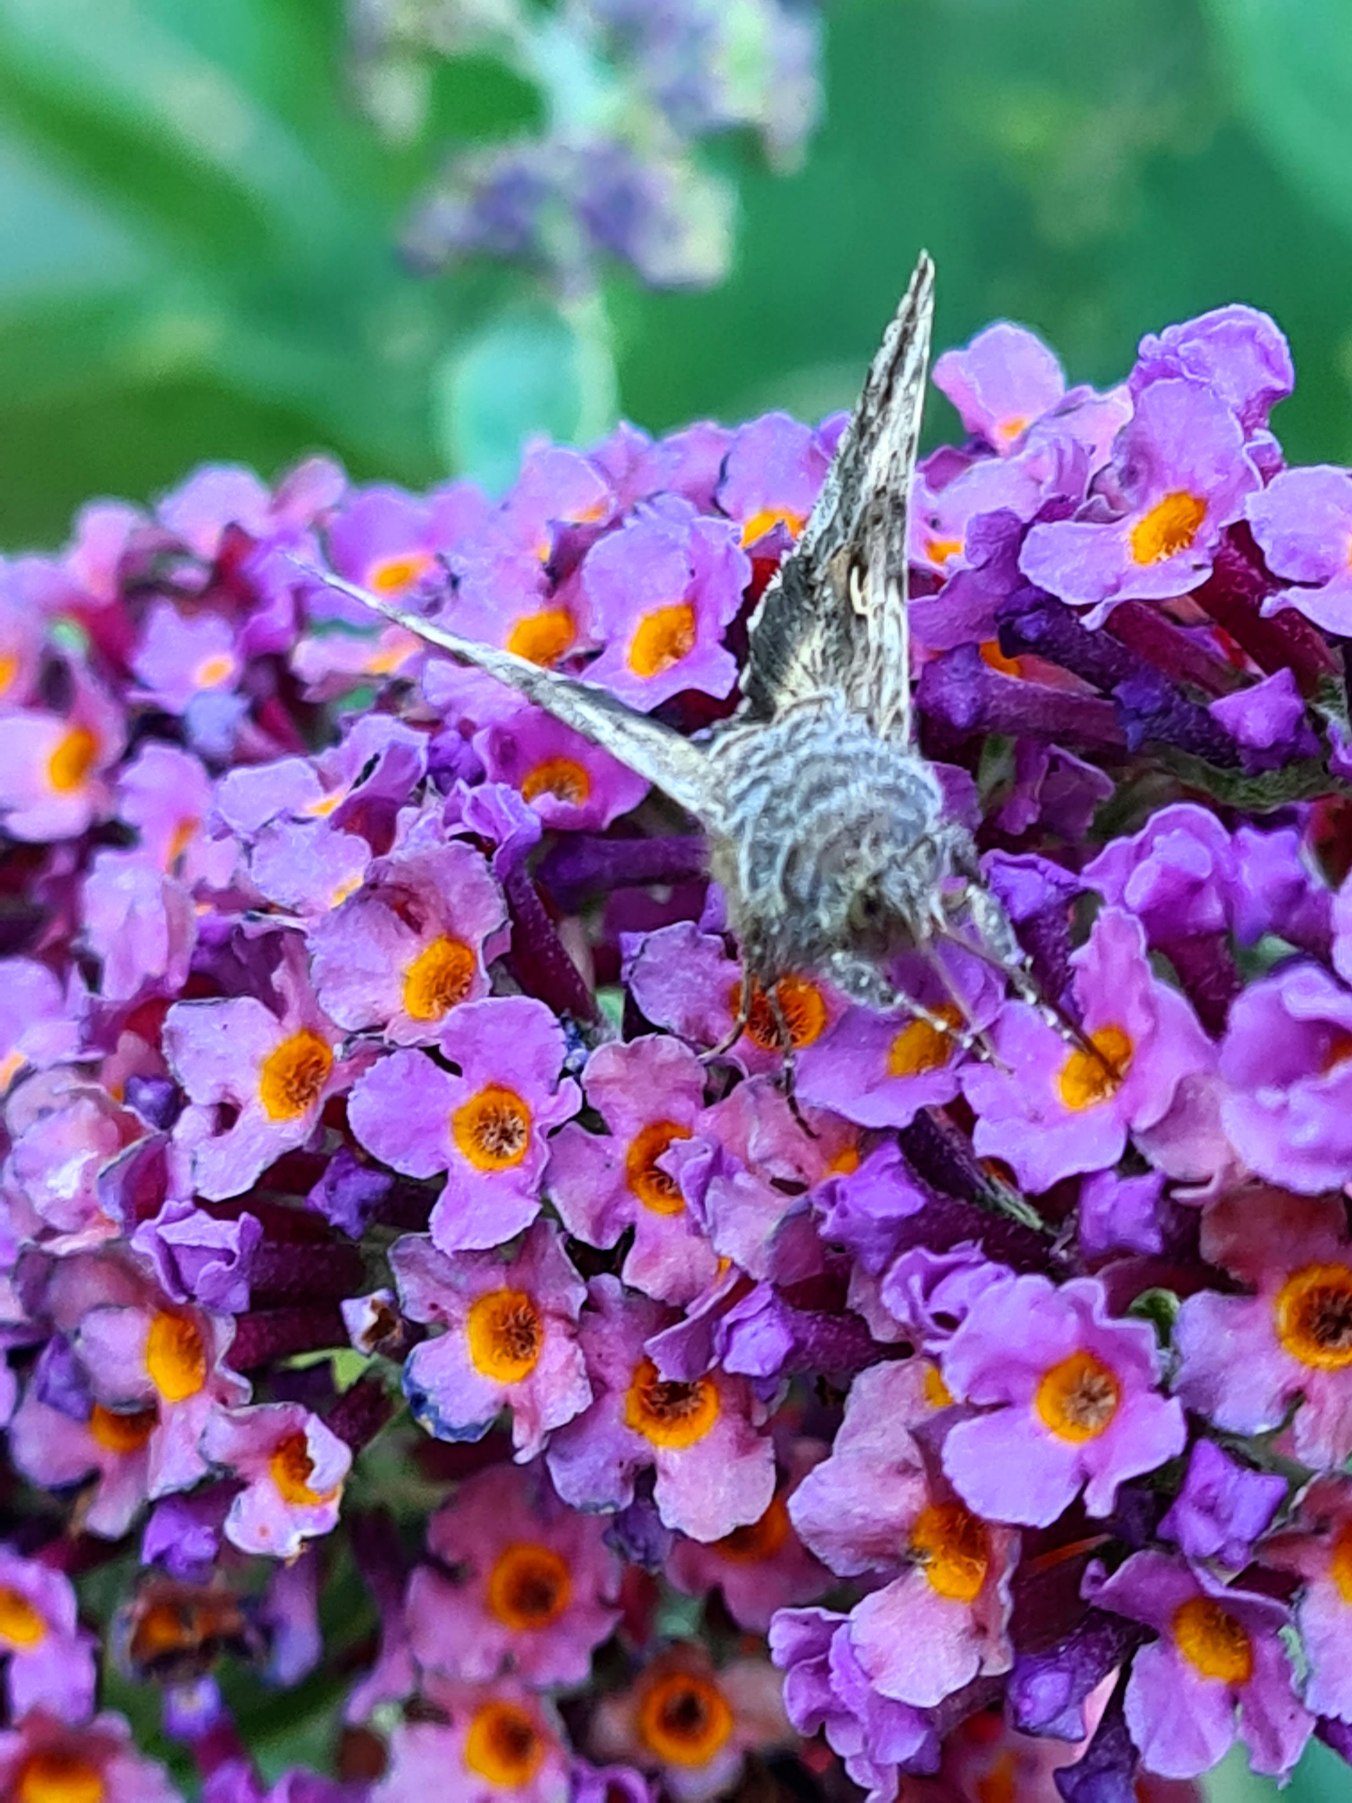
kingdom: Animalia
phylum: Arthropoda
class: Insecta
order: Lepidoptera
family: Noctuidae
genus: Autographa
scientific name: Autographa gamma
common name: Gammaugle
